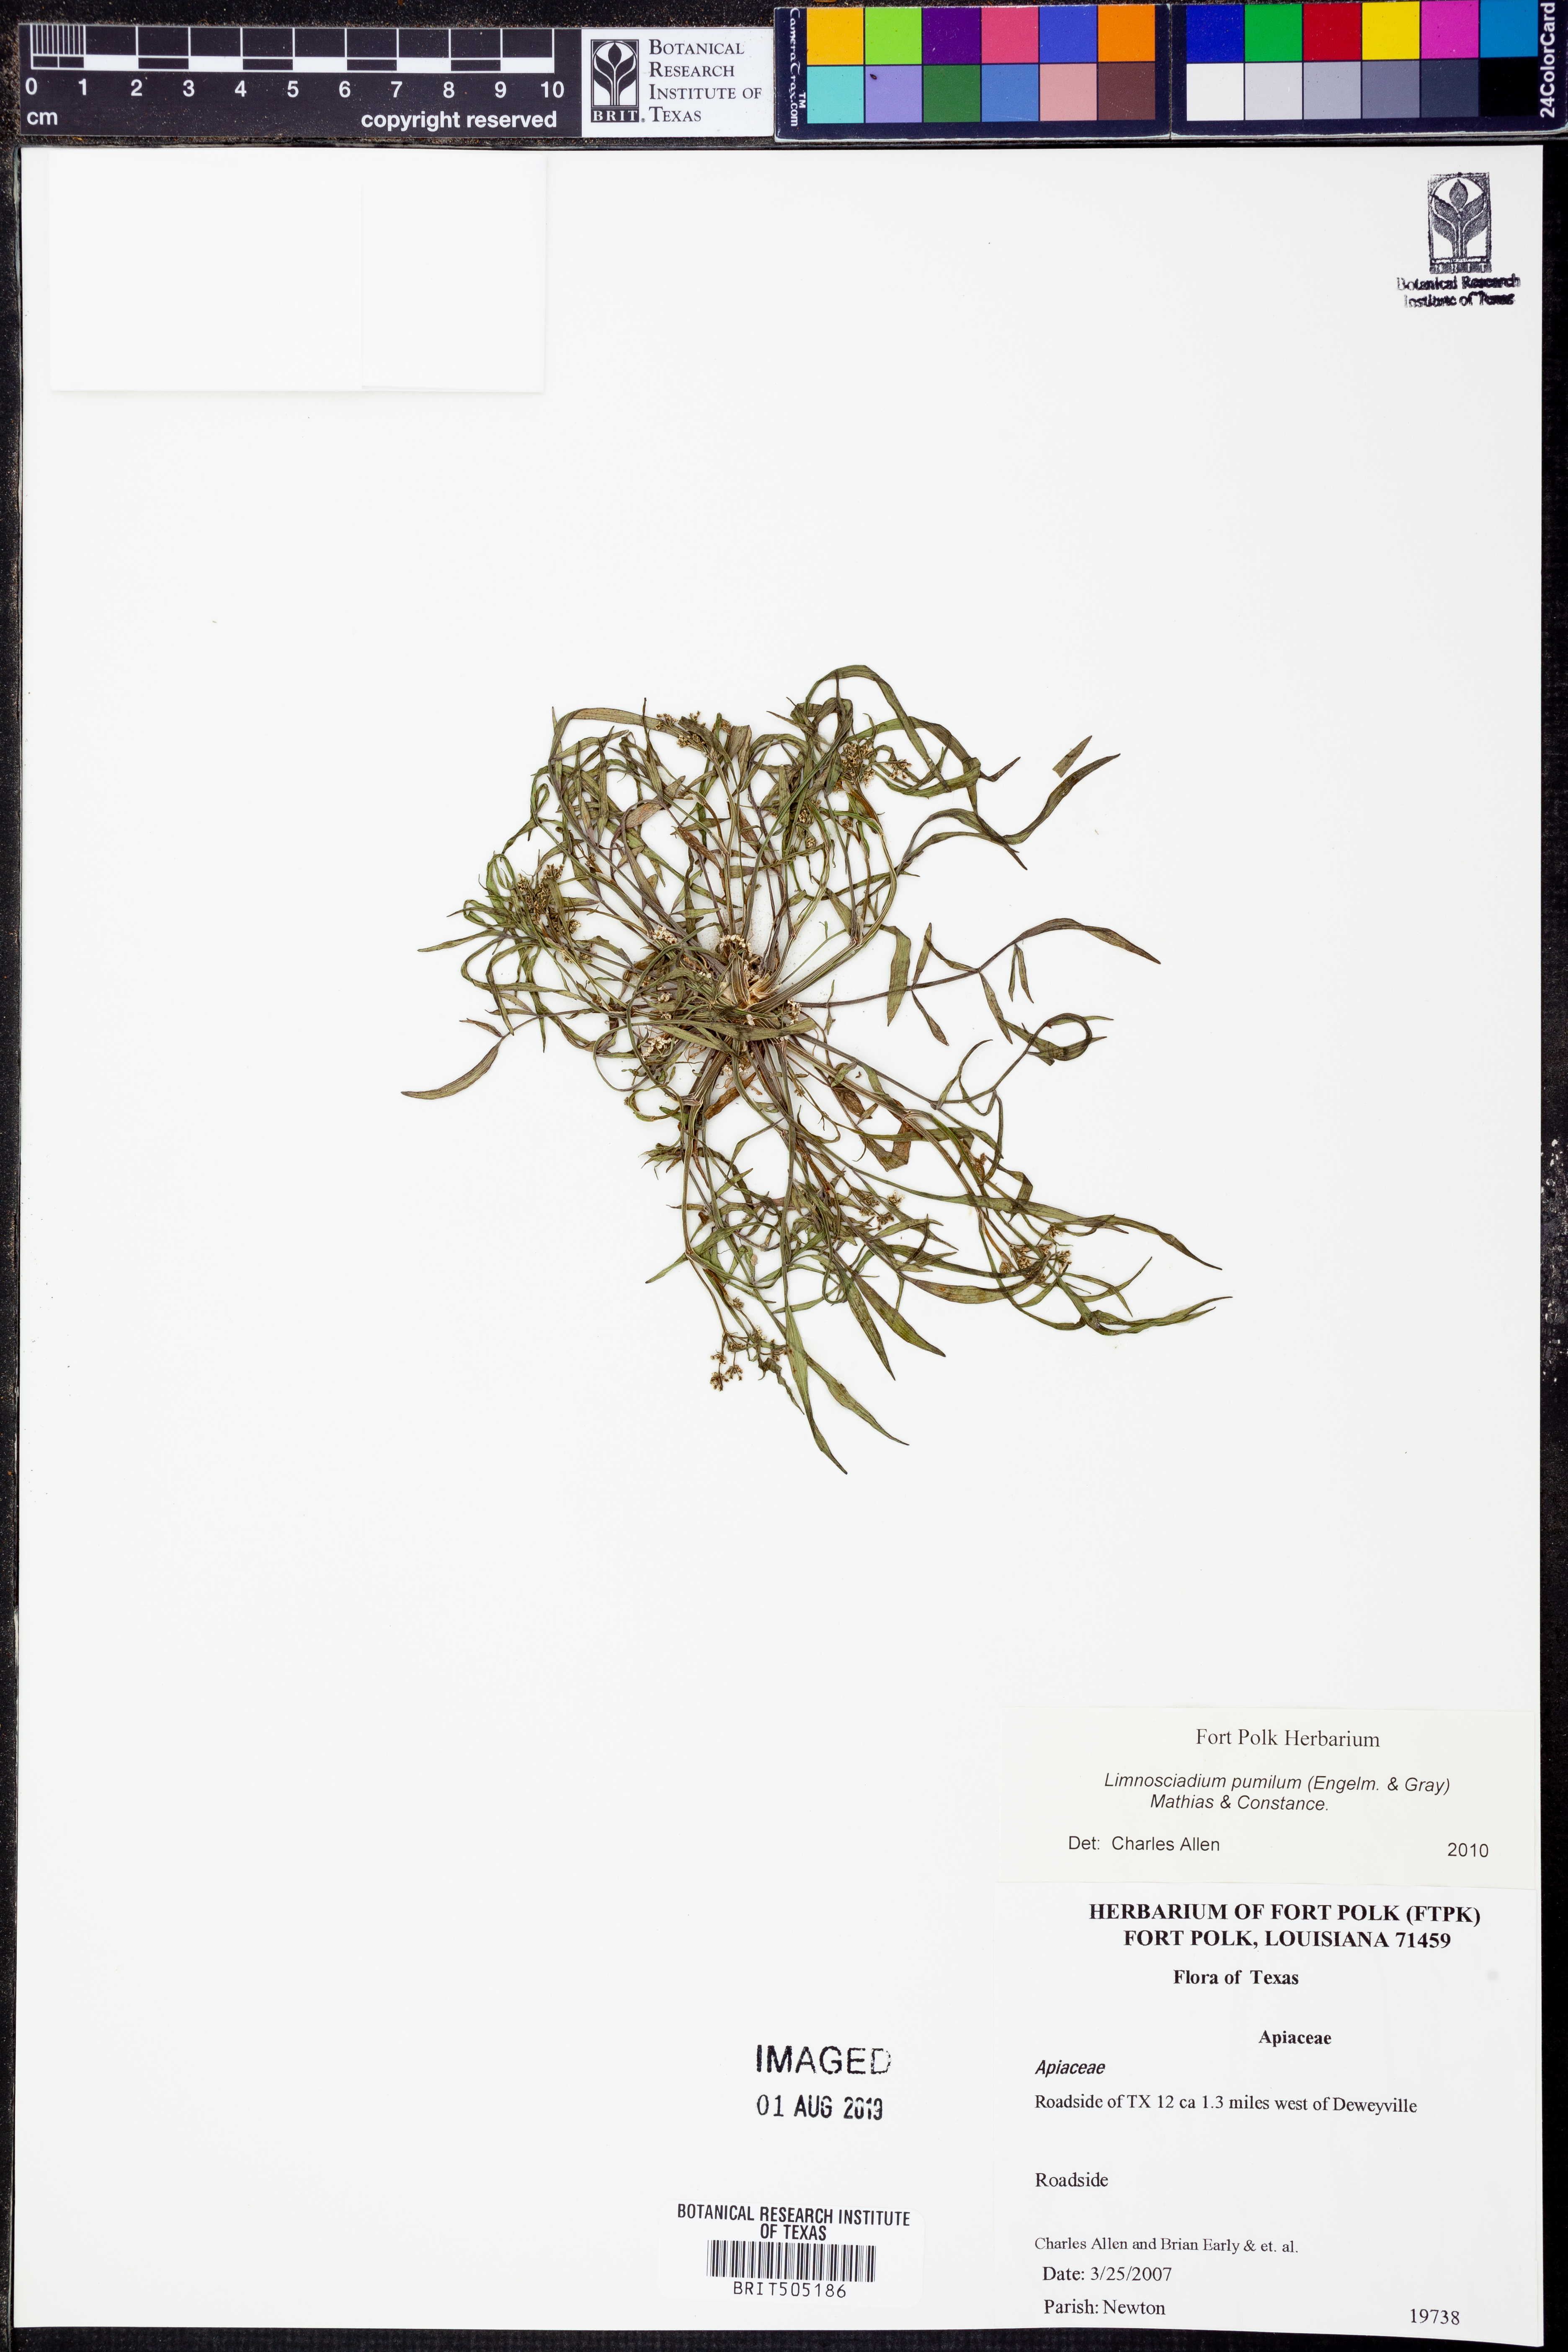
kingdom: Plantae
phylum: Tracheophyta
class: Magnoliopsida
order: Apiales
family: Apiaceae
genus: Limnosciadium
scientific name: Limnosciadium pinnatum
